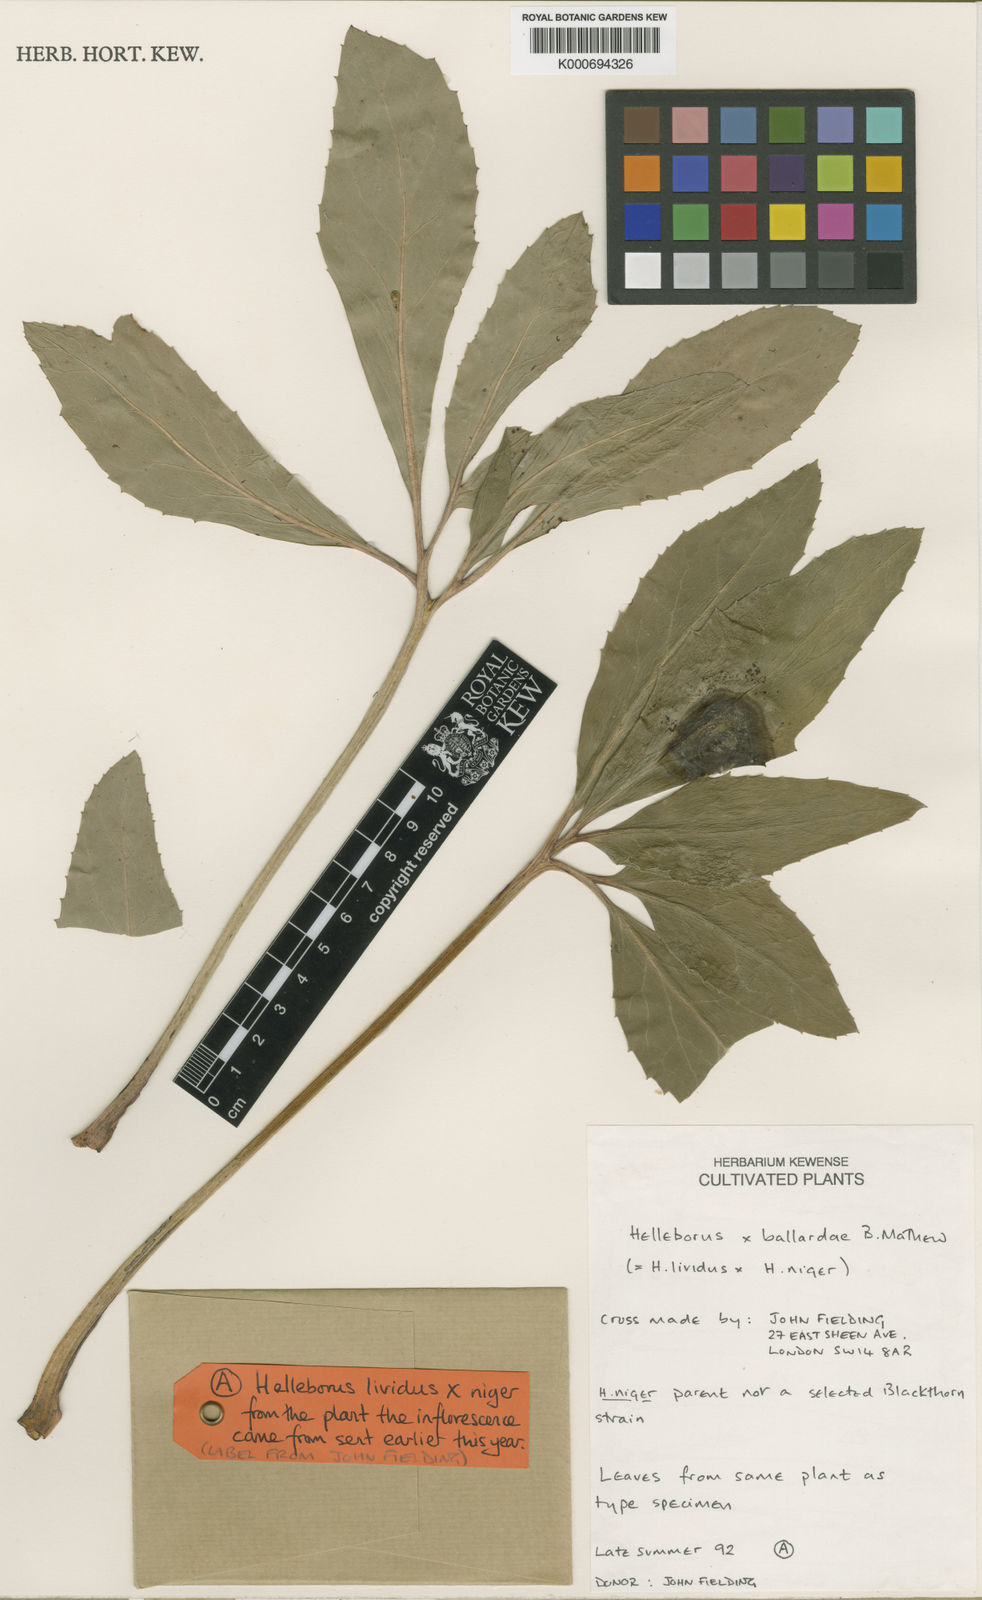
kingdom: Plantae
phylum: Tracheophyta
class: Magnoliopsida
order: Ranunculales
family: Ranunculaceae
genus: Helleborus
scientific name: Helleborus ballardiae
